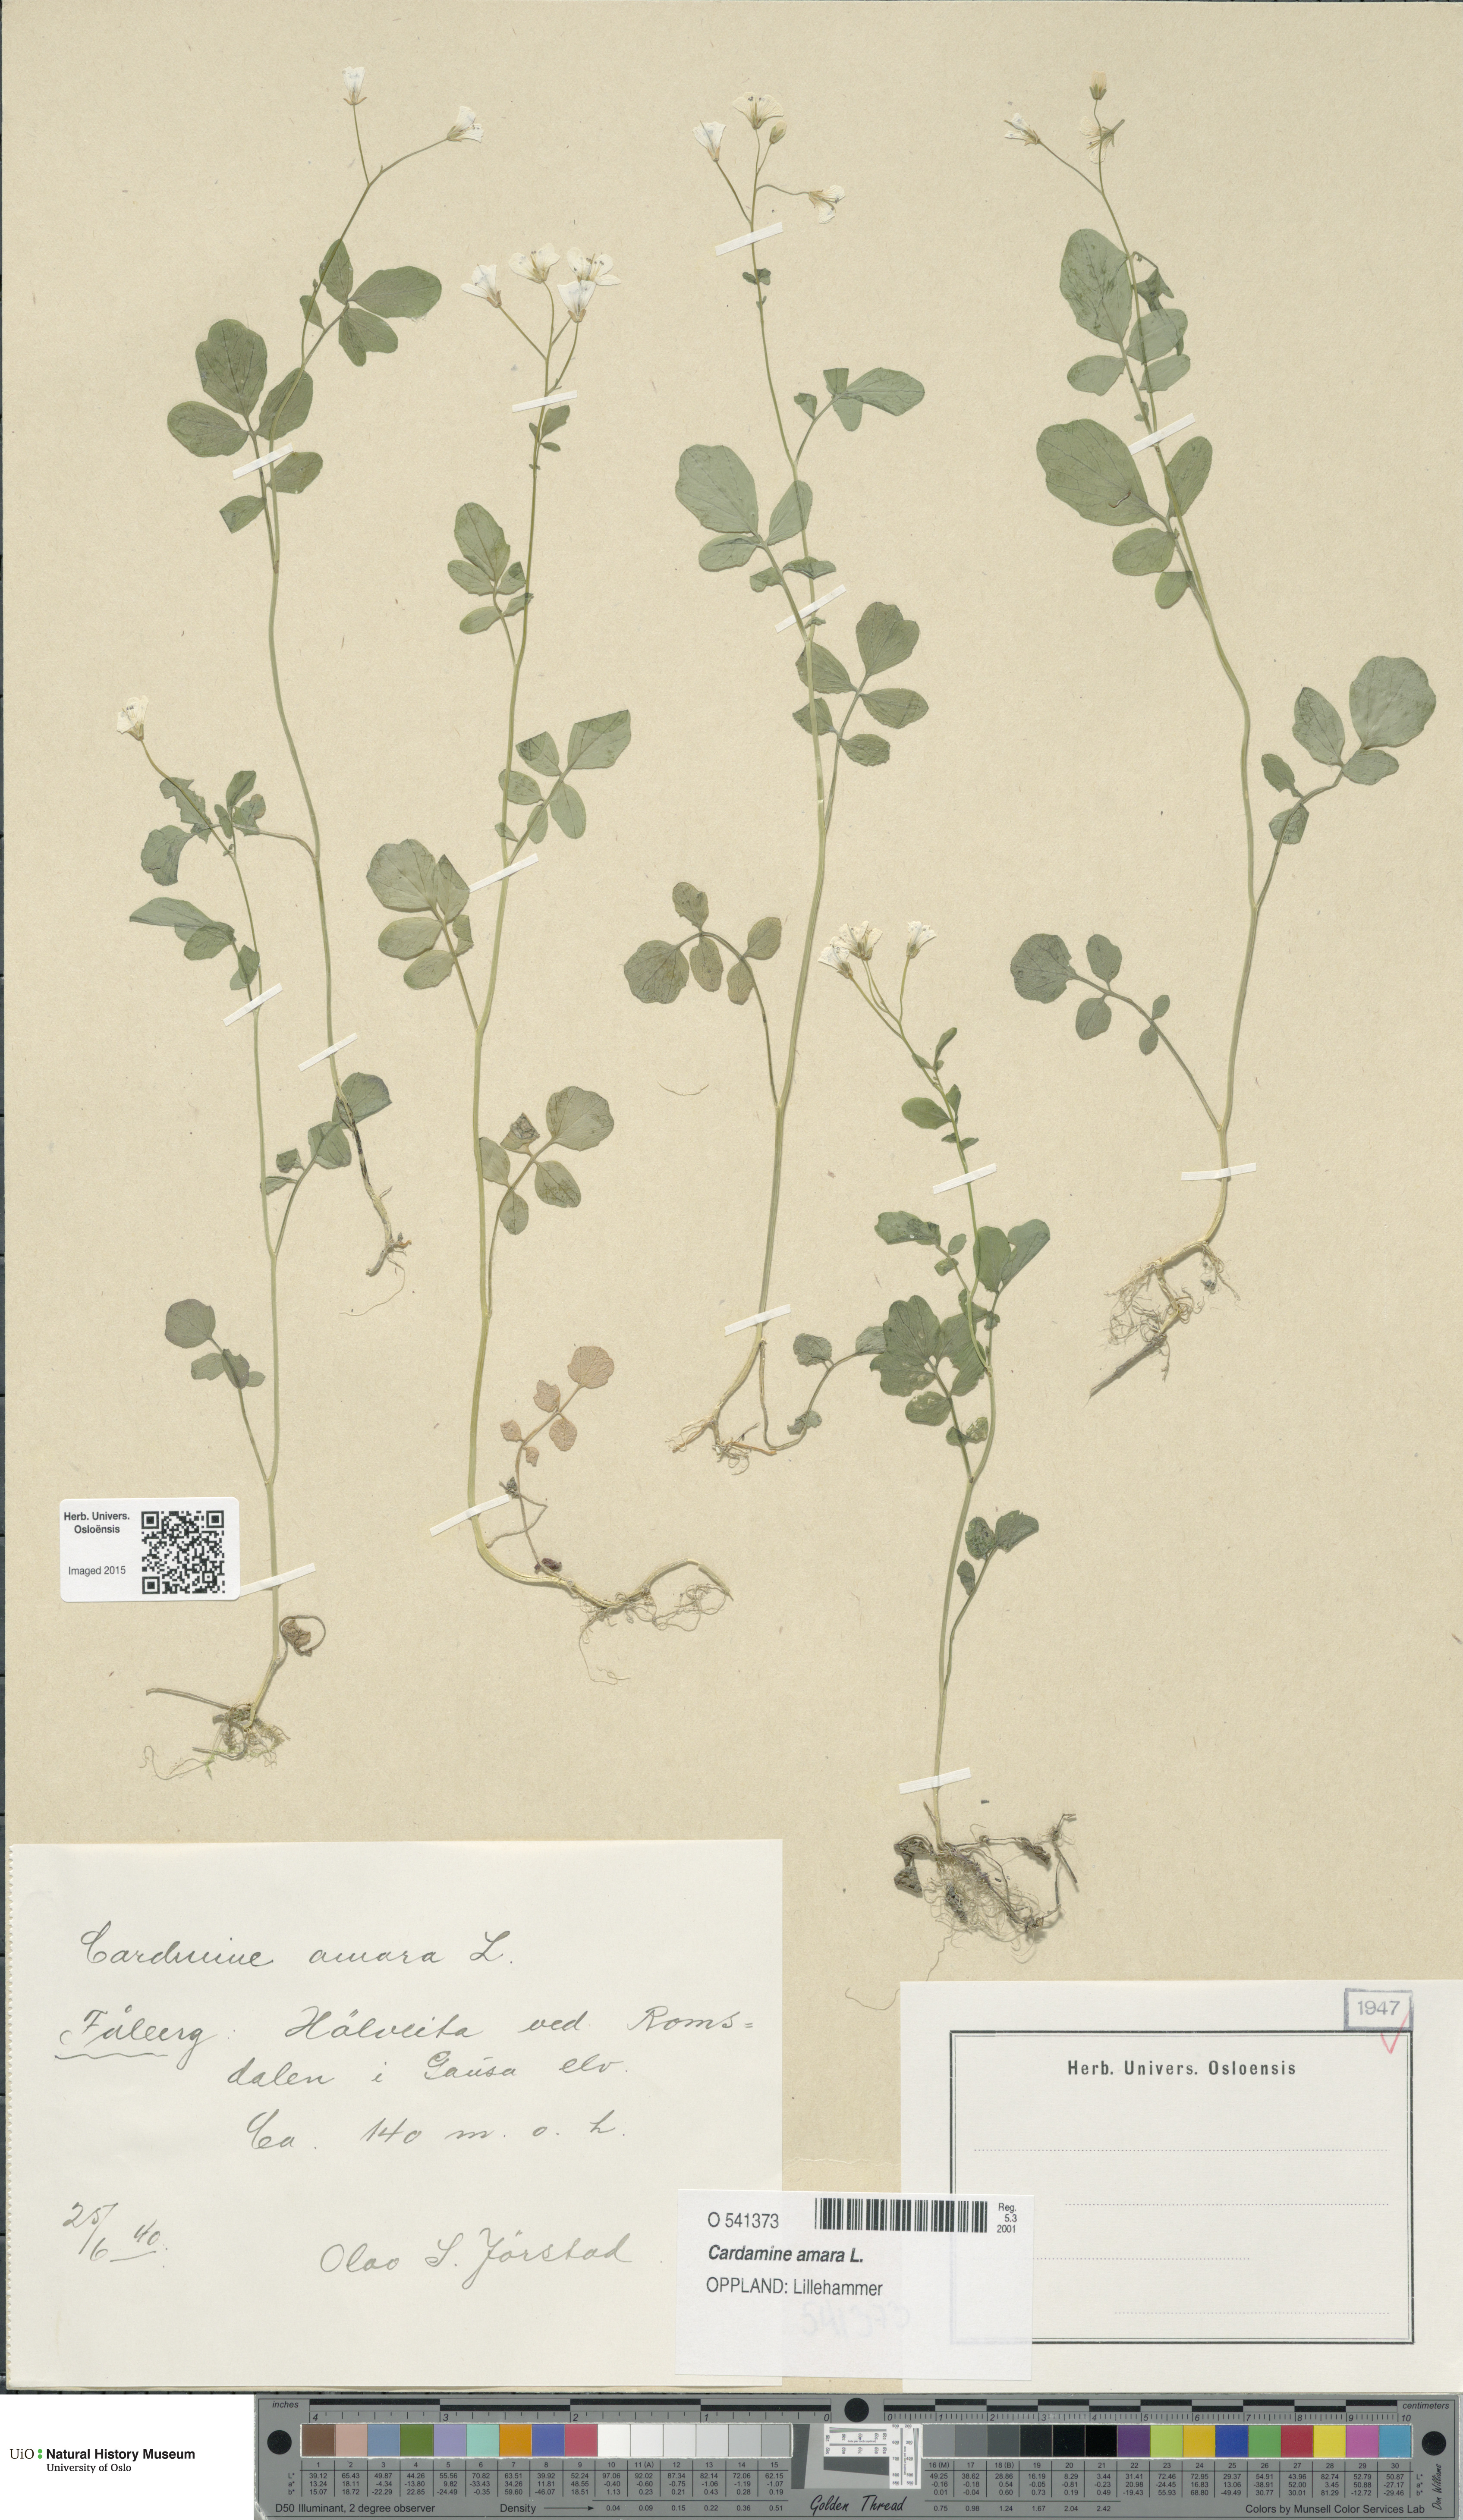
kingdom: Plantae
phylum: Tracheophyta
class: Magnoliopsida
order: Brassicales
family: Brassicaceae
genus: Cardamine
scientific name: Cardamine amara
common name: Large bitter-cress
